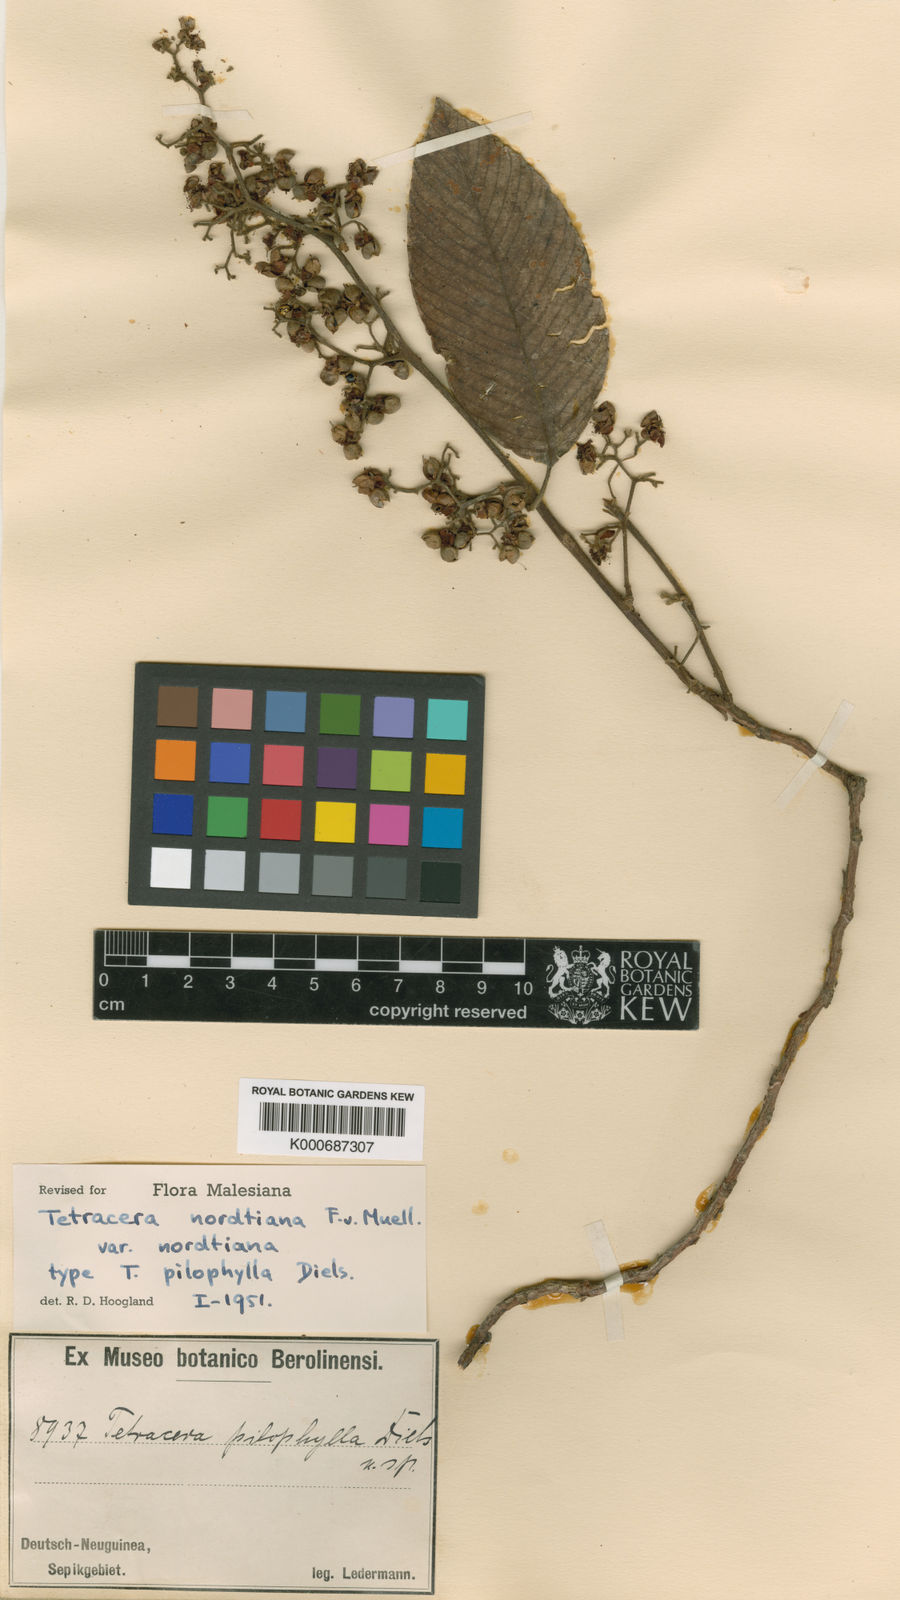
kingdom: Plantae
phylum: Tracheophyta
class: Magnoliopsida
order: Dilleniales
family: Dilleniaceae
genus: Tetracera
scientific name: Tetracera nordtiana
